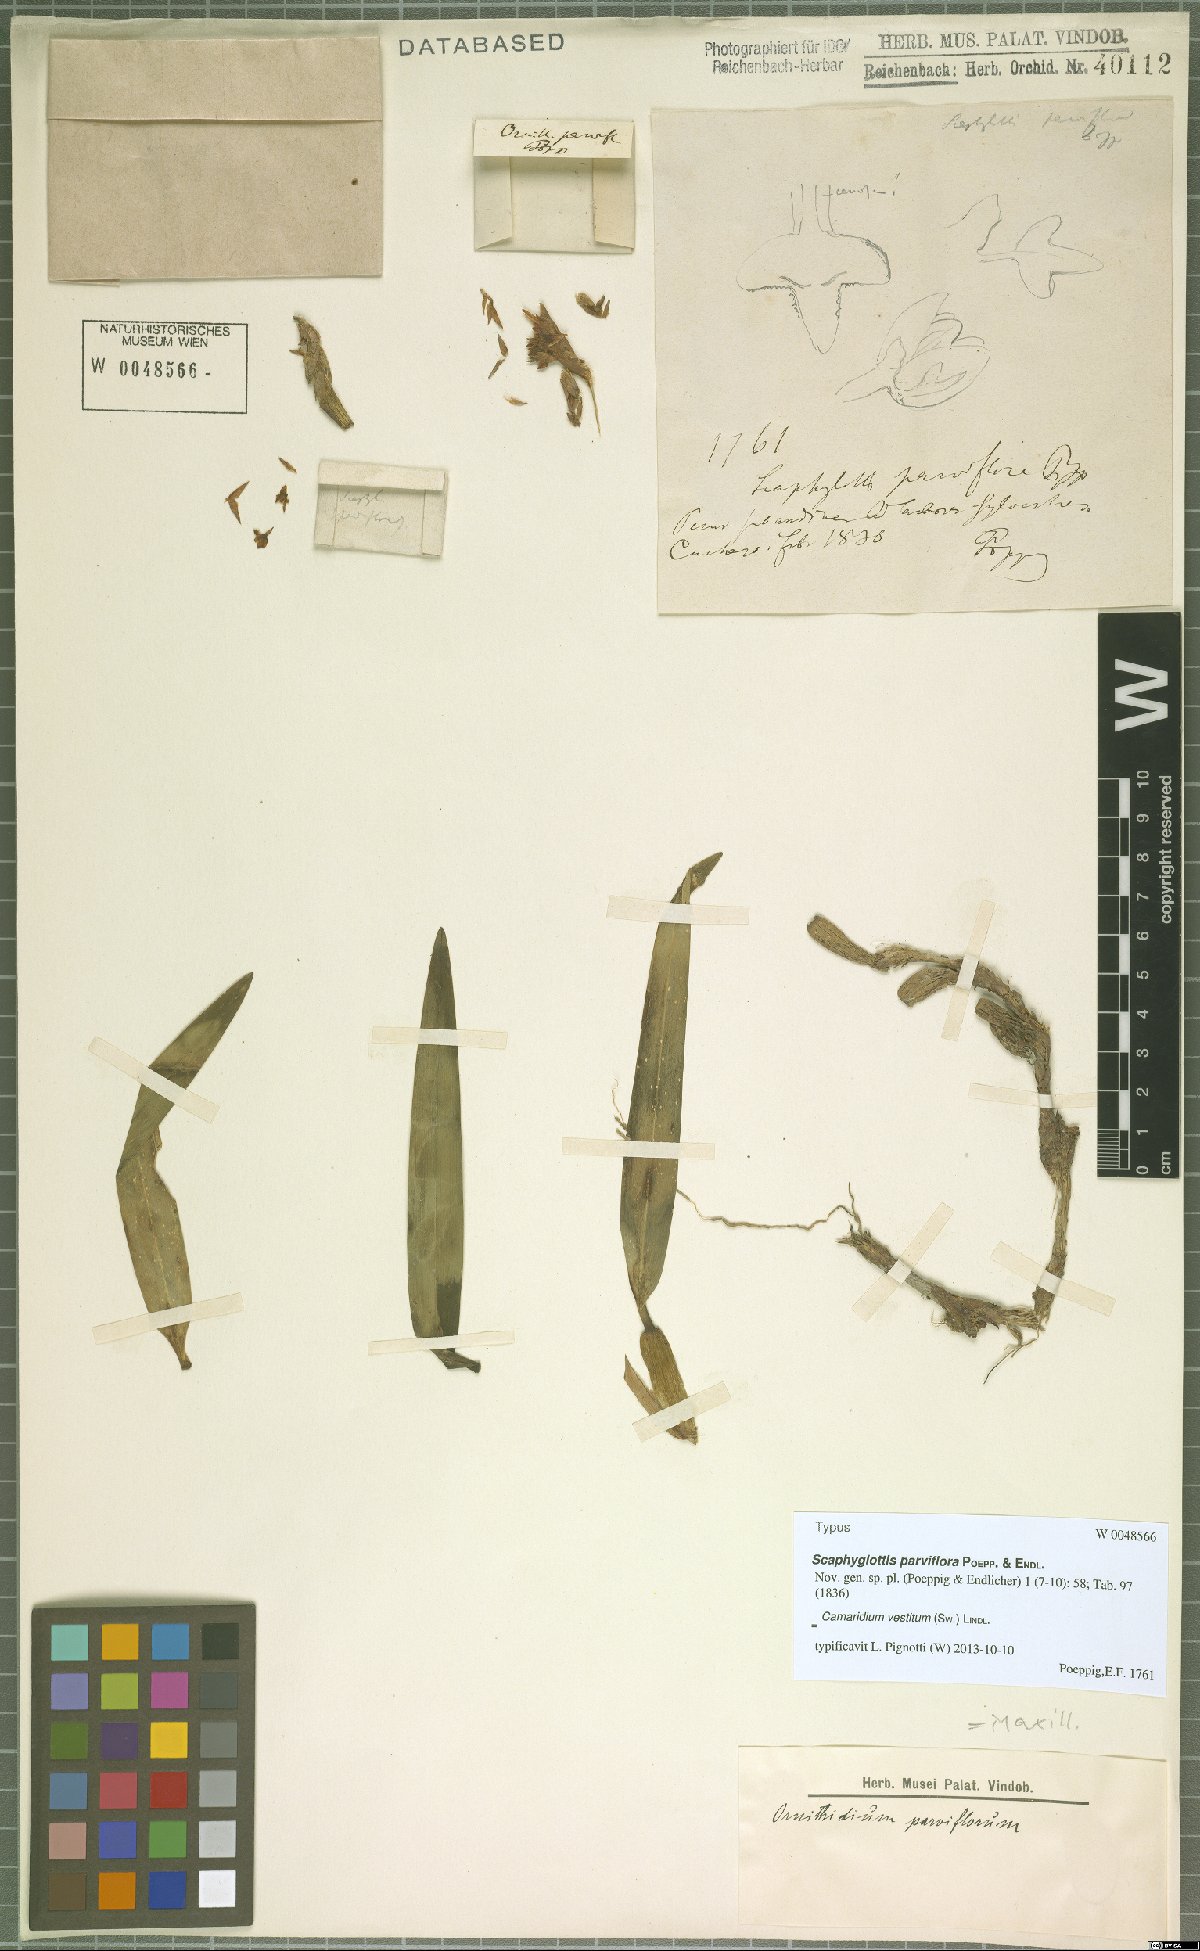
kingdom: Plantae
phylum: Tracheophyta
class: Liliopsida
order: Asparagales
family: Orchidaceae
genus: Maxillaria
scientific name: Maxillaria parviflora
